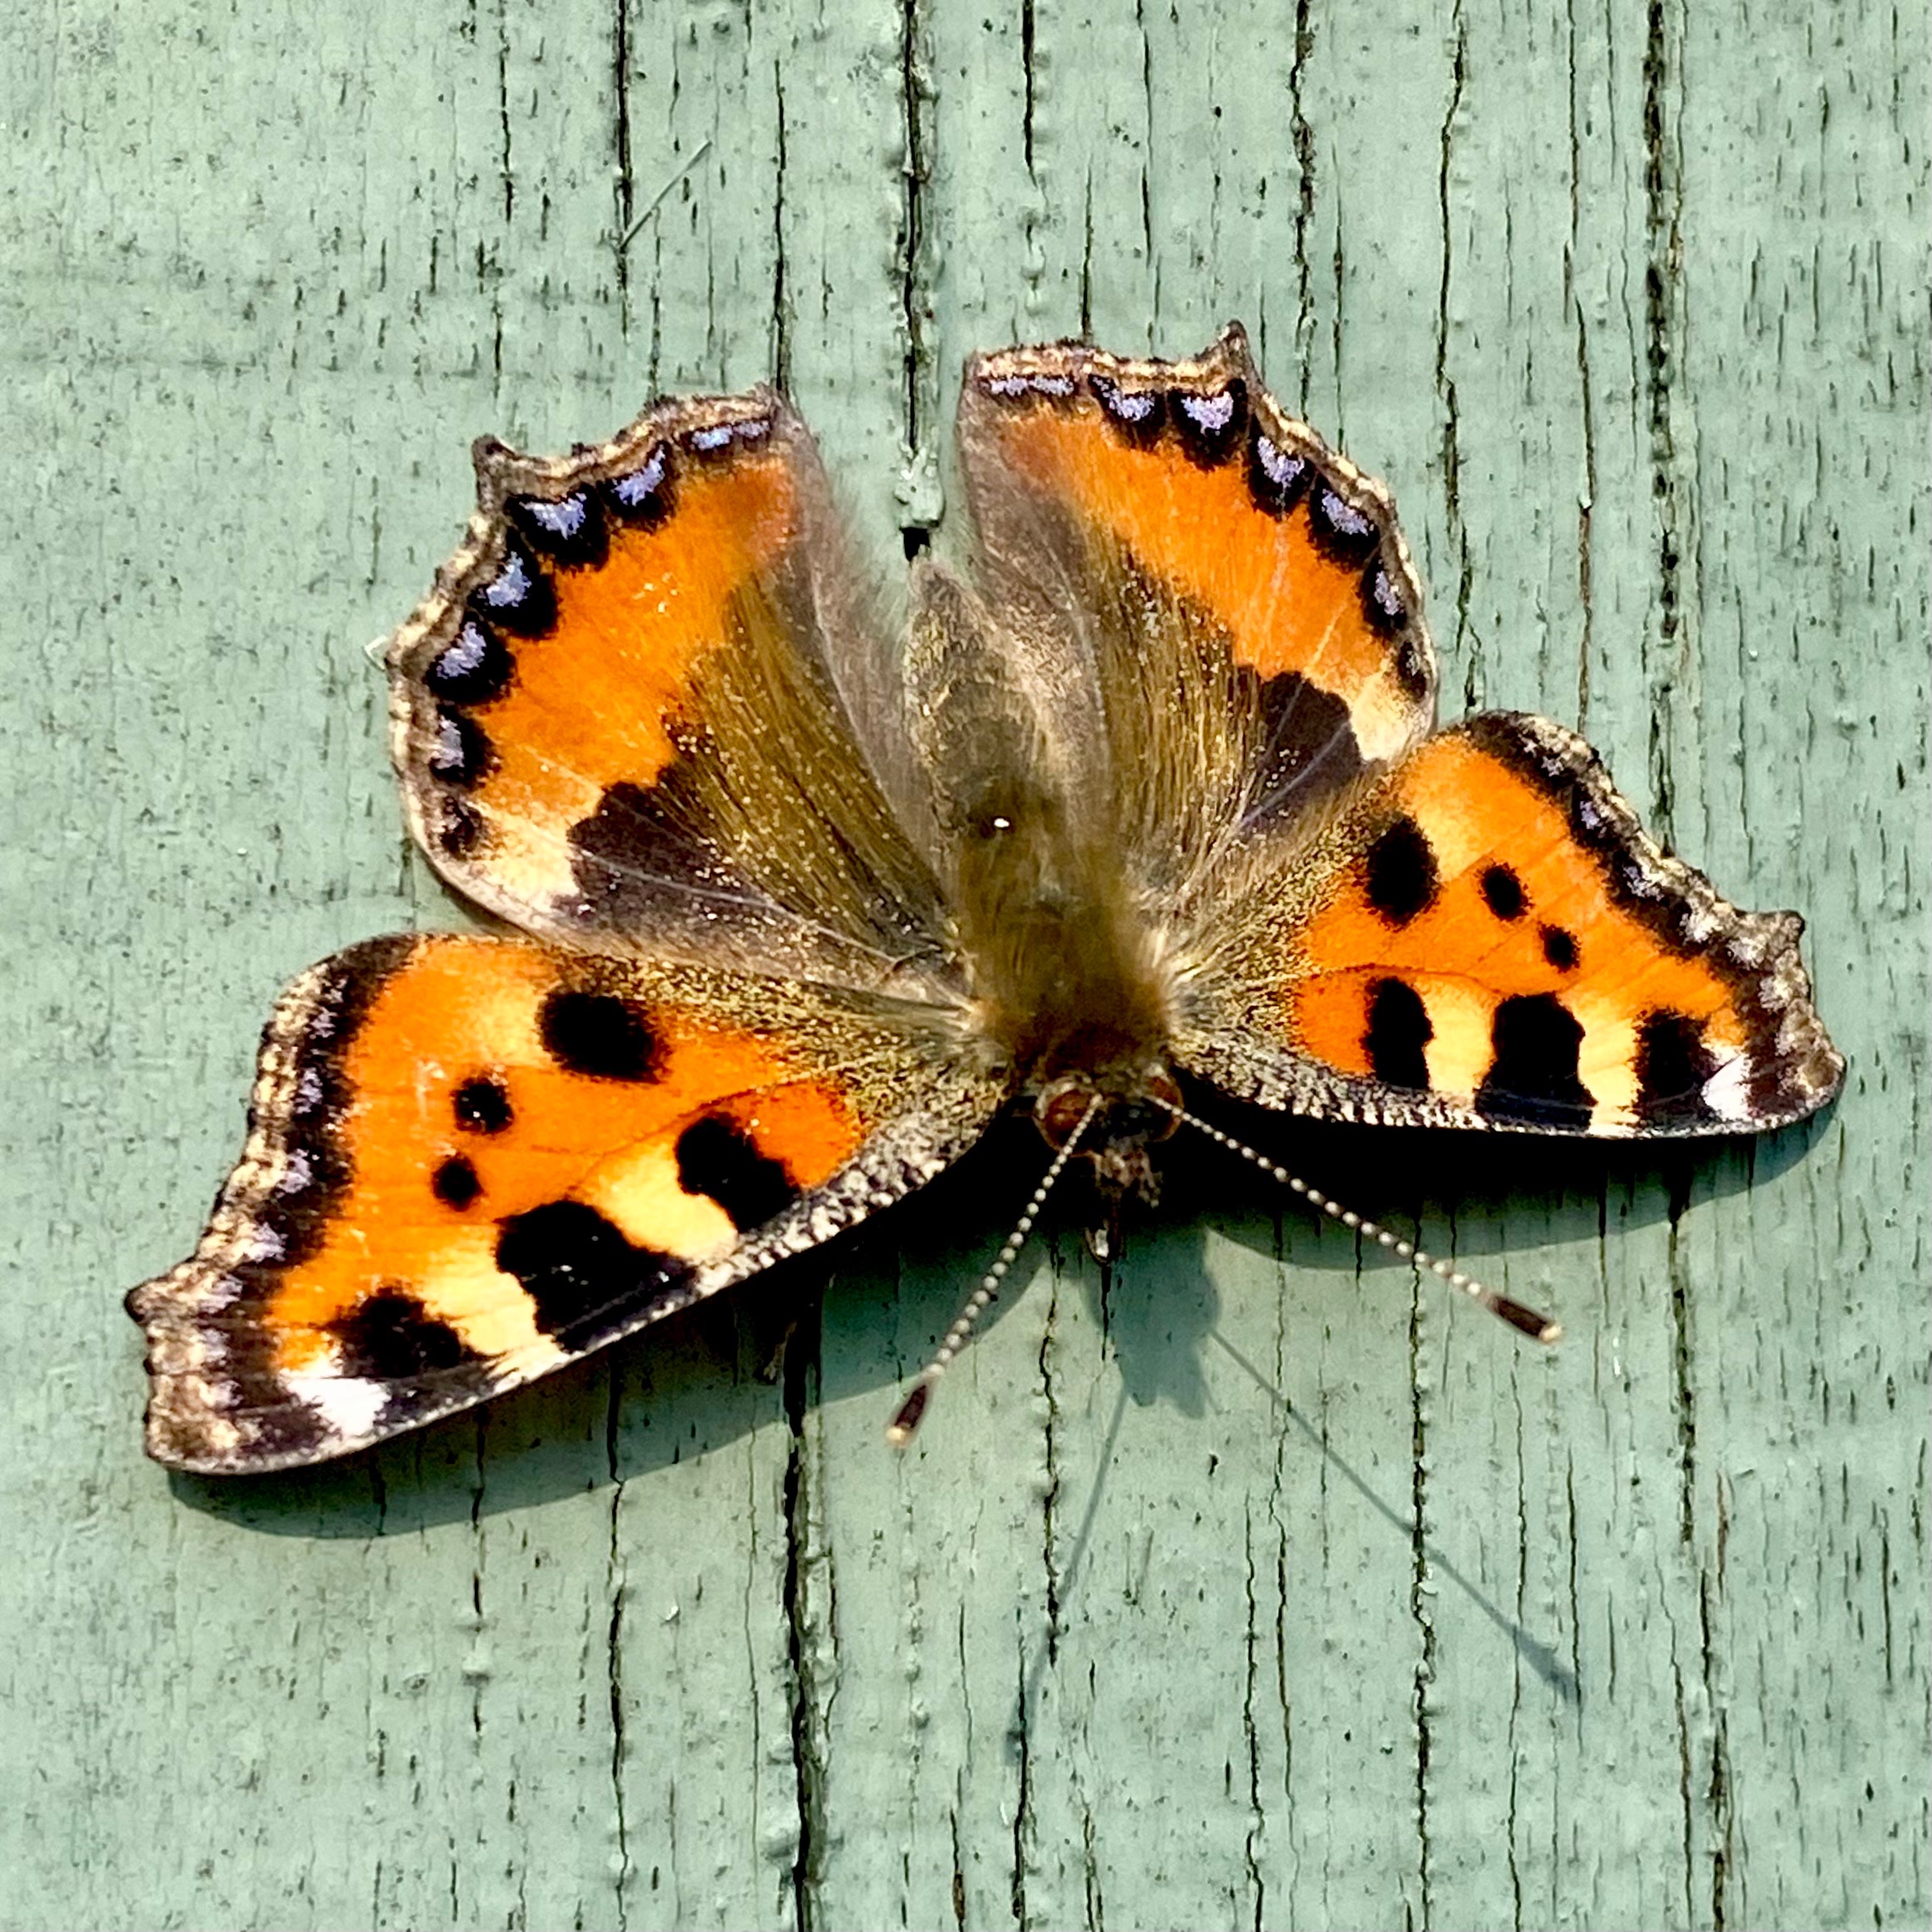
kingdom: Animalia
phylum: Arthropoda
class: Insecta
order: Lepidoptera
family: Nymphalidae
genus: Aglais
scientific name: Aglais urticae
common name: Nældens takvinge
